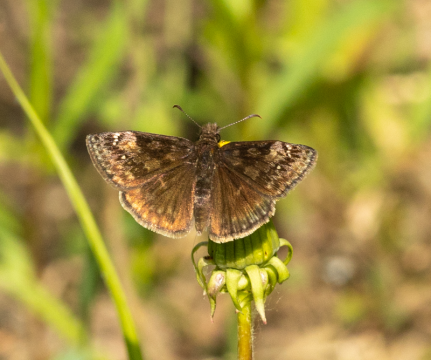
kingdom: Animalia
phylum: Arthropoda
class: Insecta
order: Lepidoptera
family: Hesperiidae
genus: Gesta
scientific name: Gesta
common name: Juvenal's Duskywing
